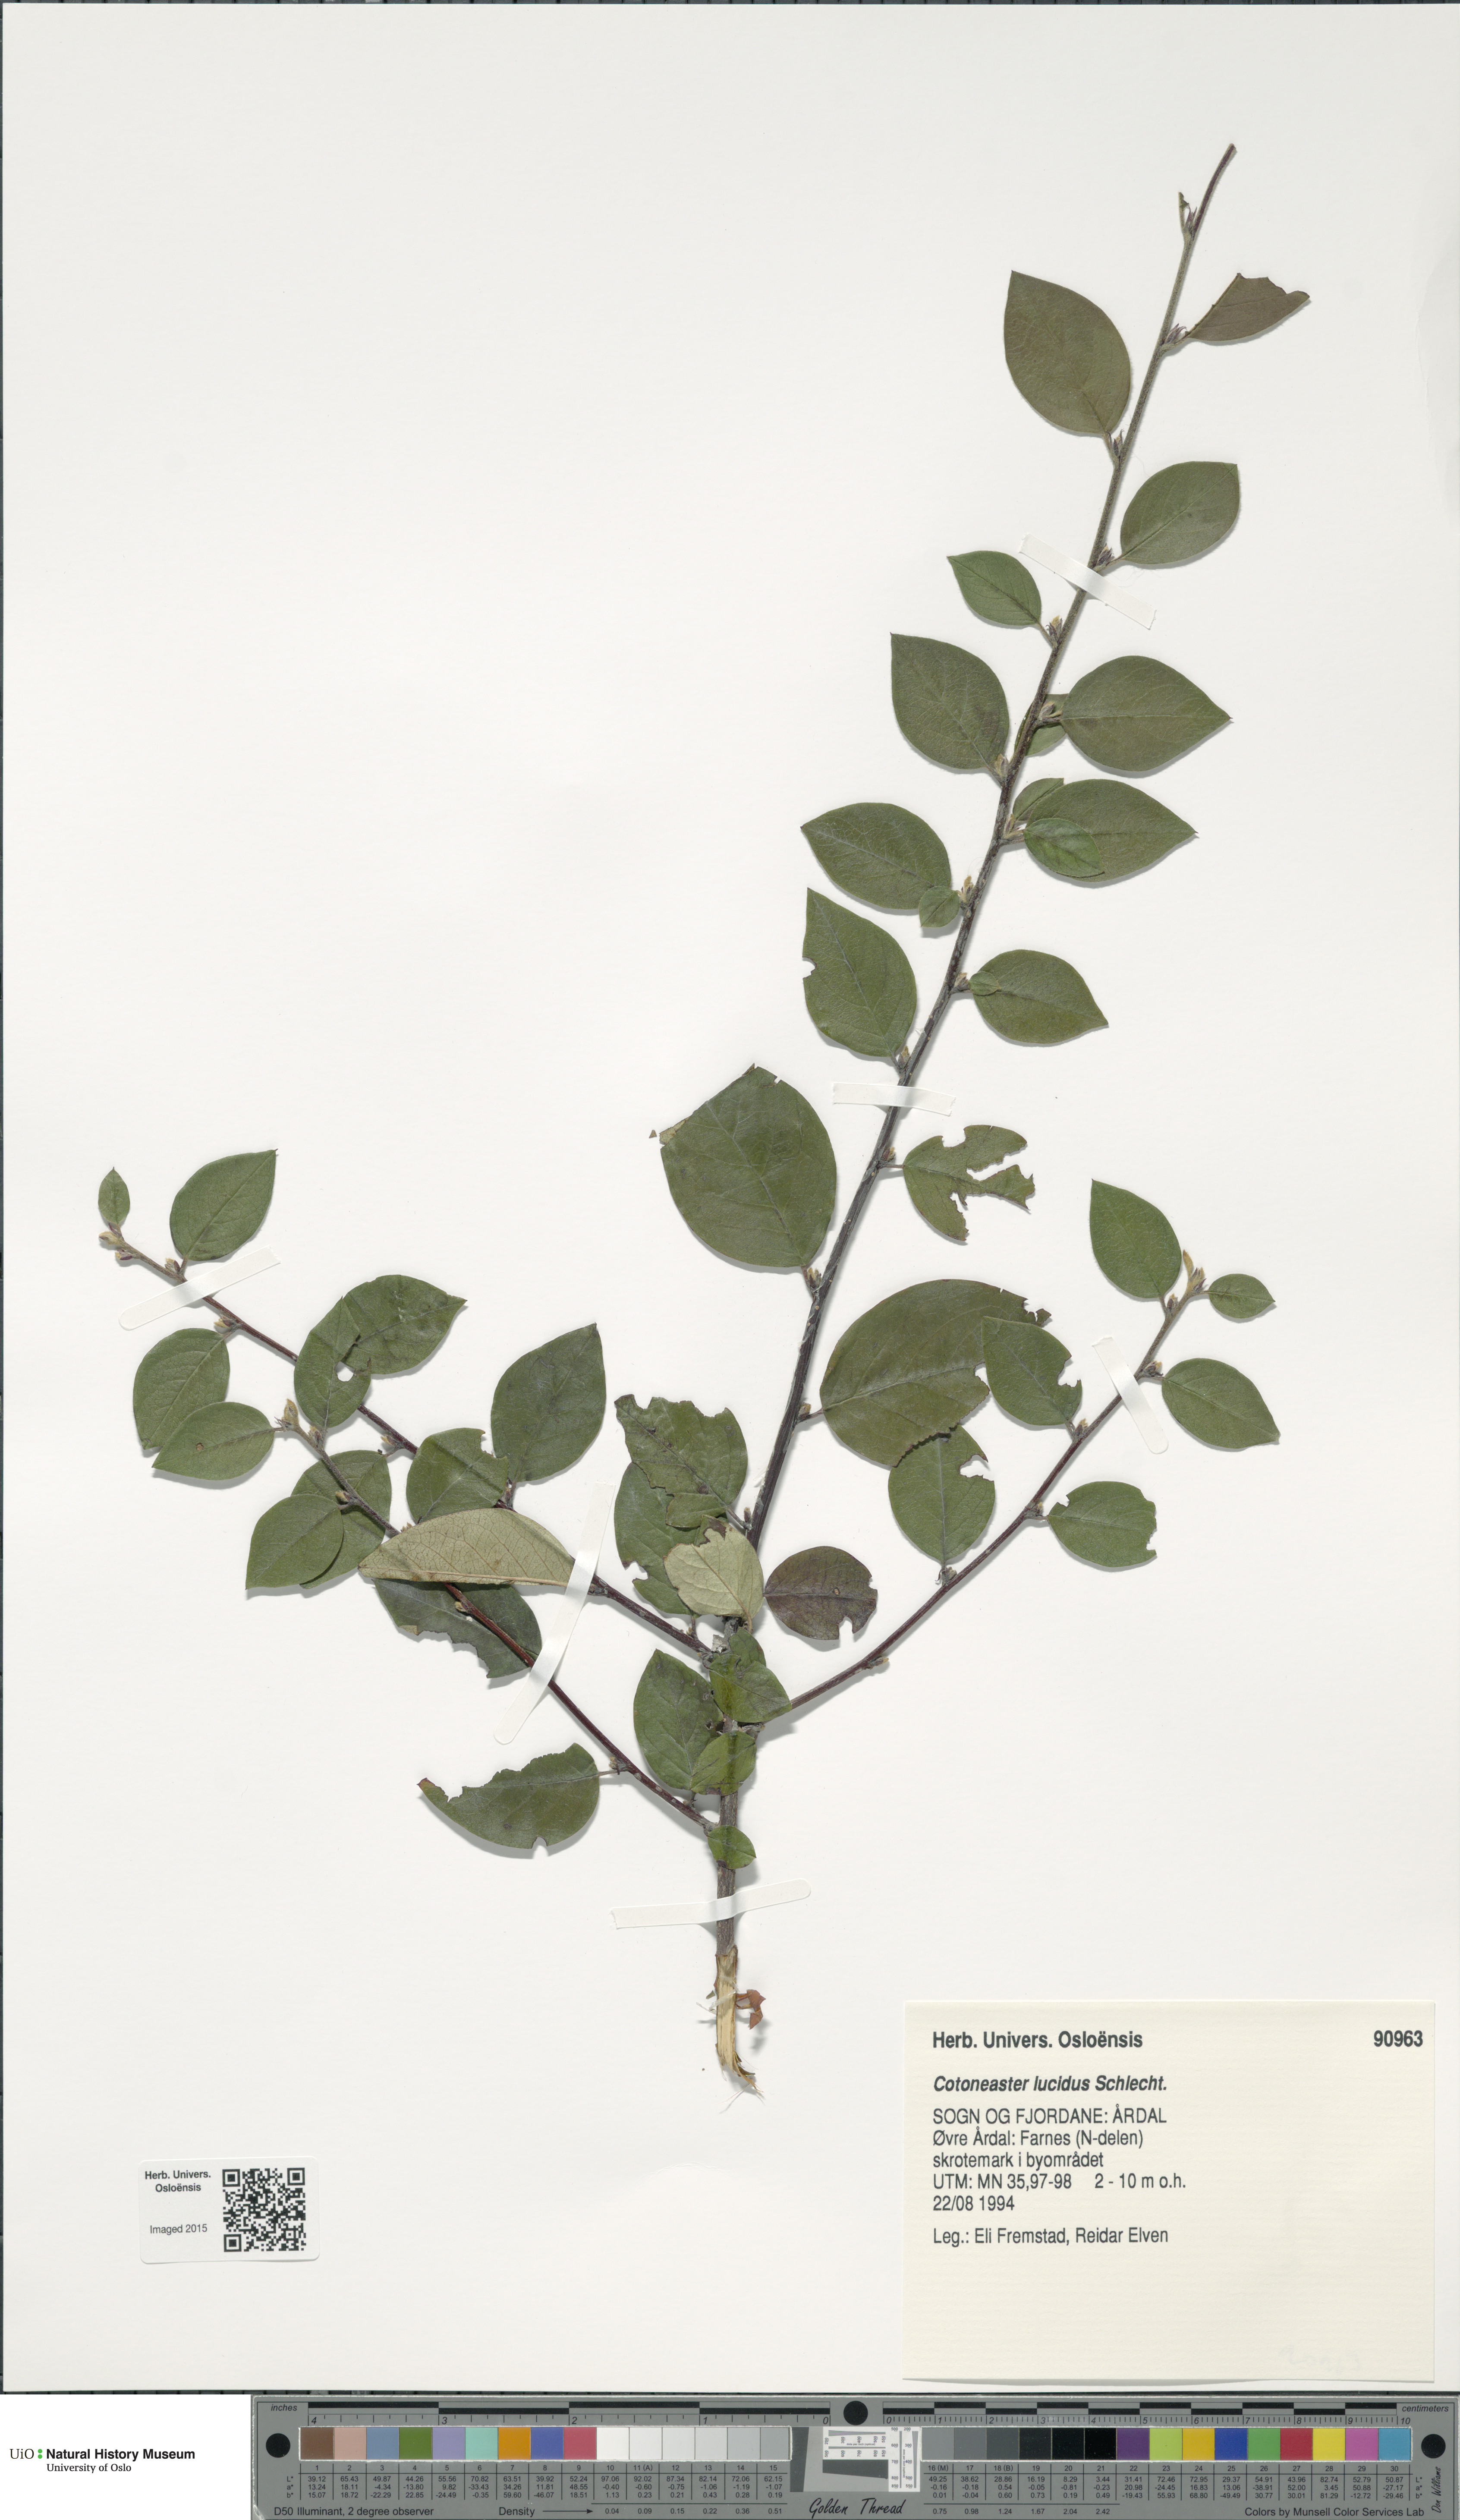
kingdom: Plantae
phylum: Tracheophyta
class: Magnoliopsida
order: Rosales
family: Rosaceae
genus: Cotoneaster
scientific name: Cotoneaster acutifolius
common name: Peking cotoneaster
